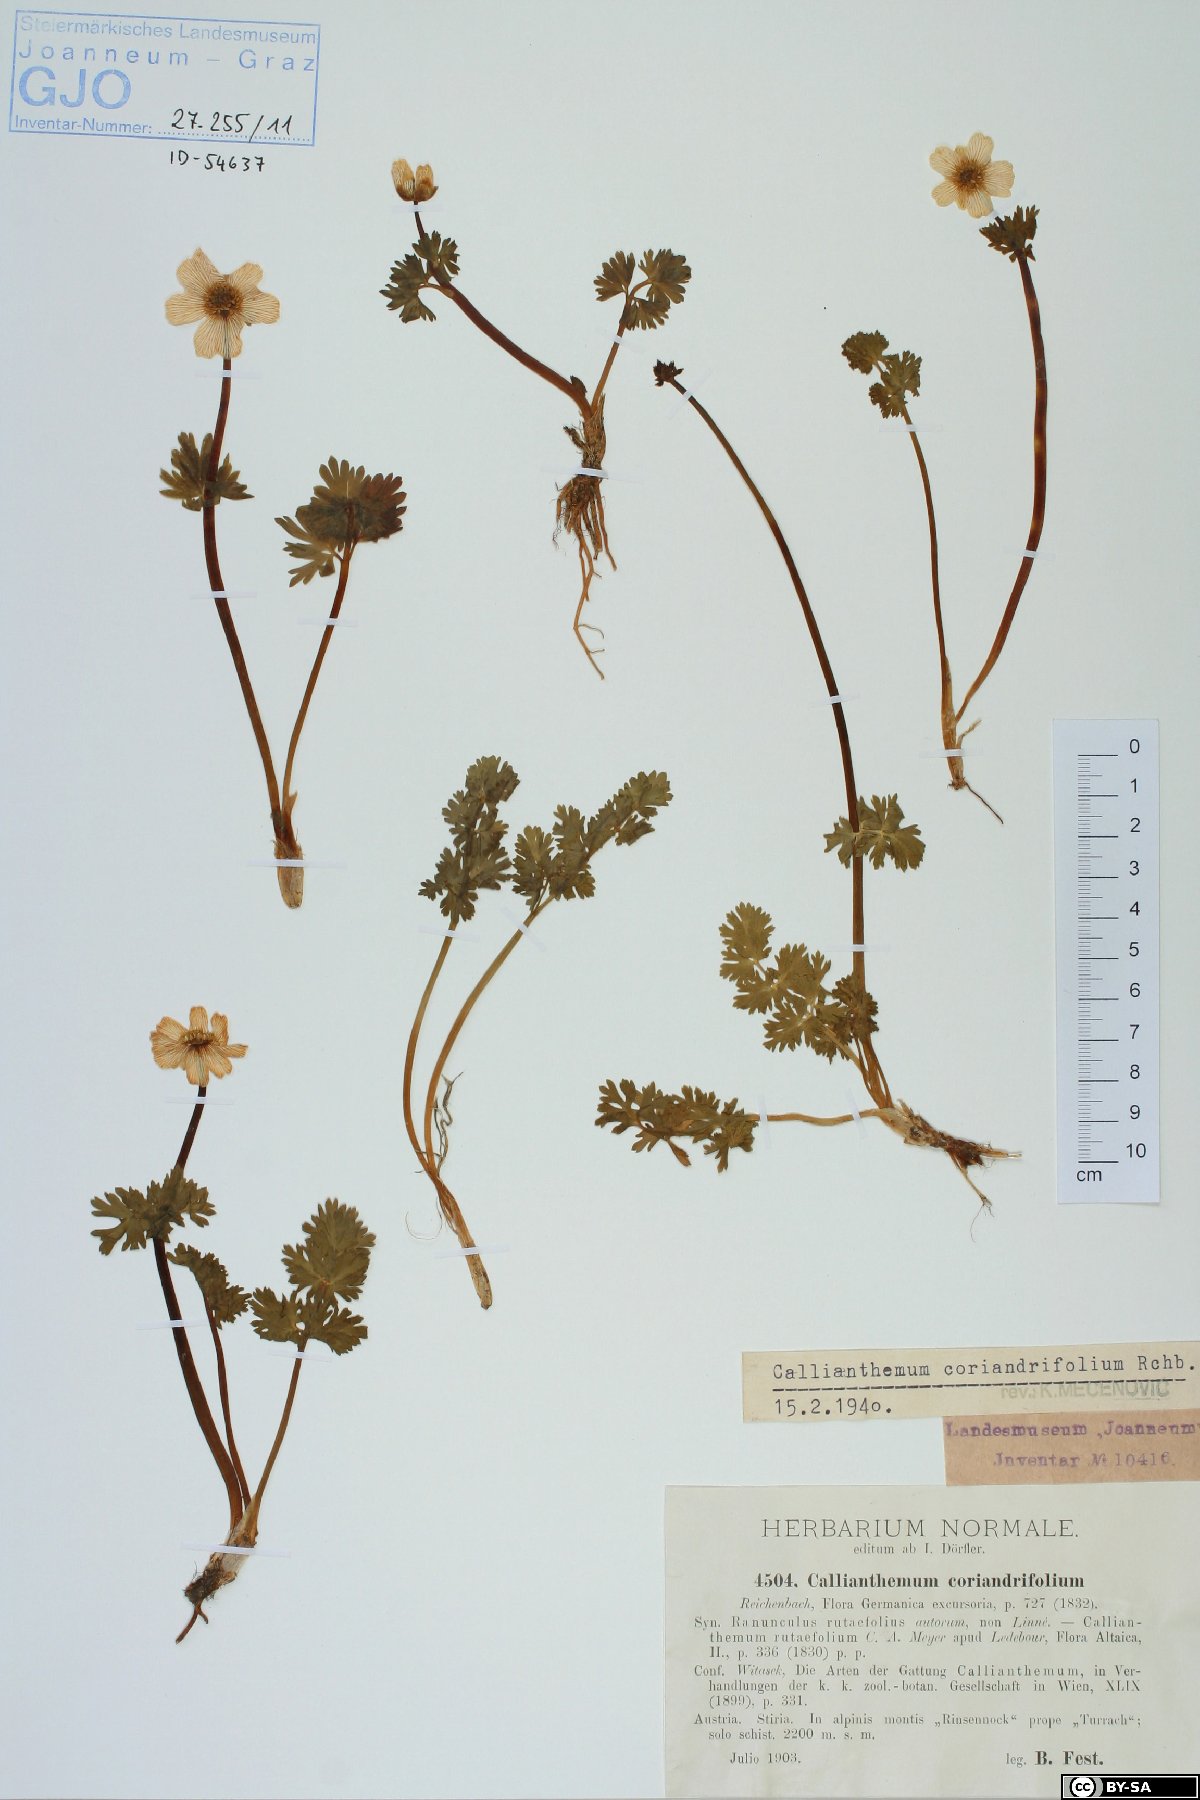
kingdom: Plantae
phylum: Tracheophyta
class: Magnoliopsida
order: Ranunculales
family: Ranunculaceae
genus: Callianthemum
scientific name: Callianthemum coriandrifolium
